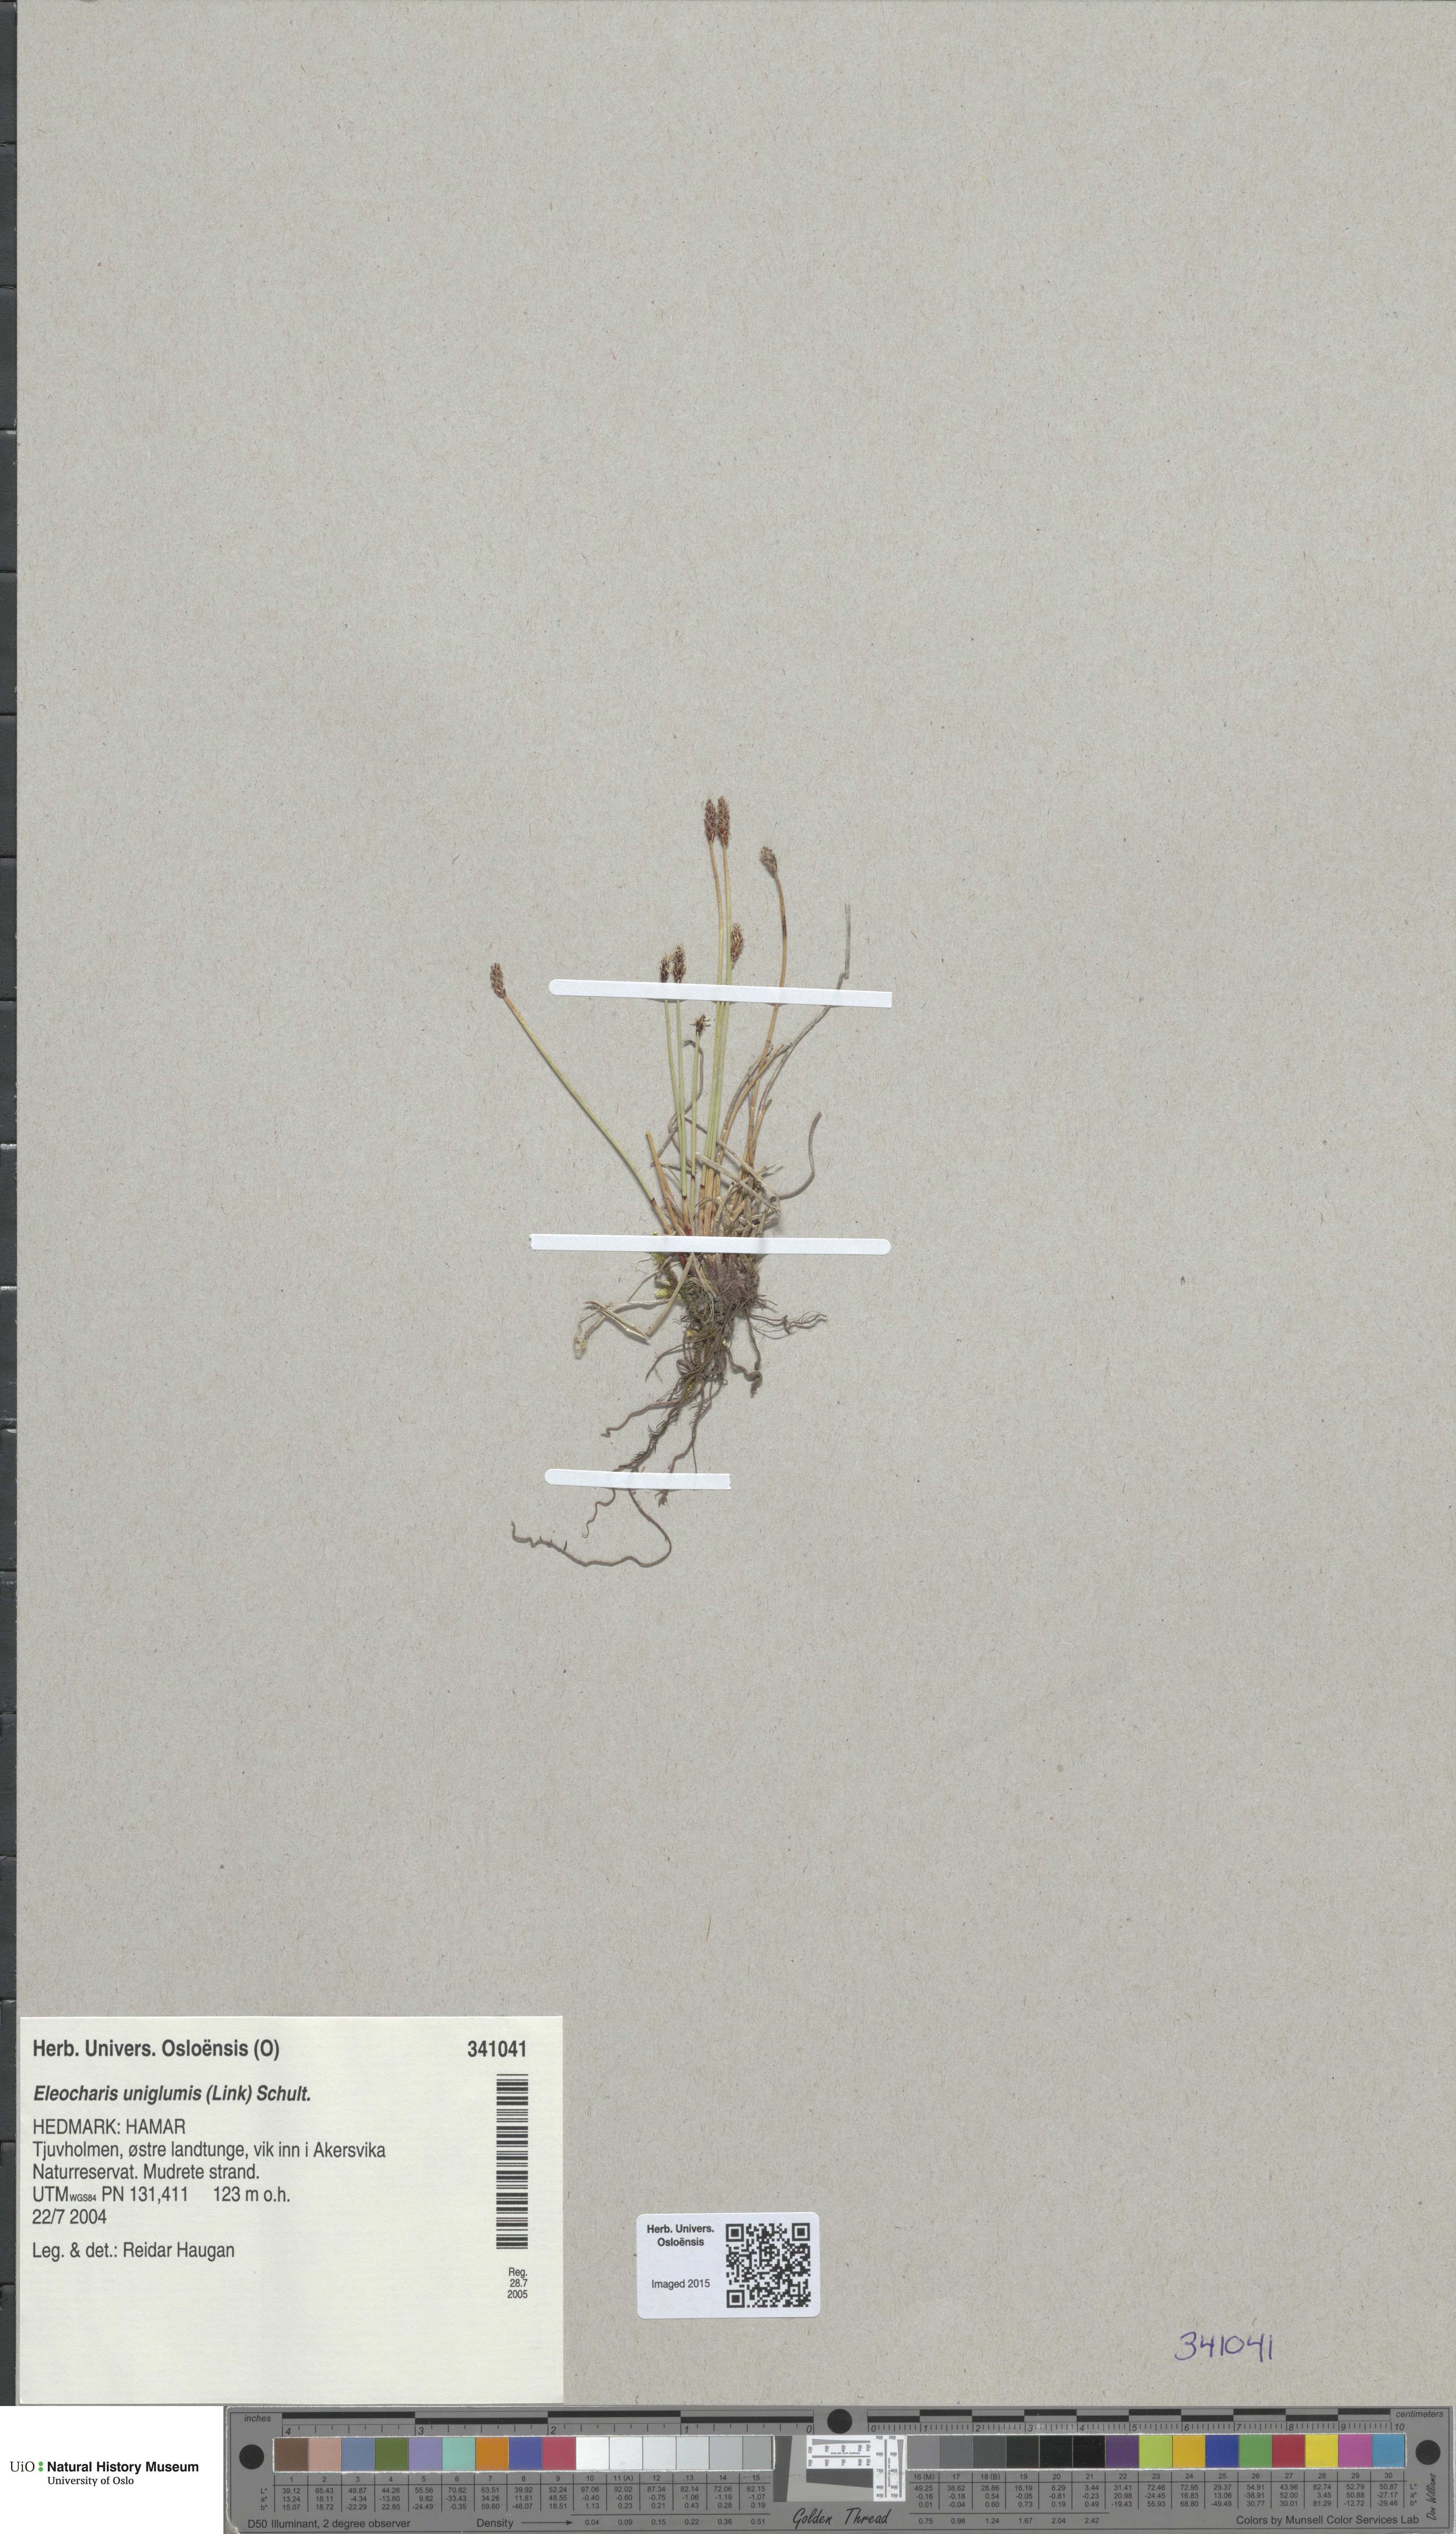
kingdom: Plantae
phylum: Tracheophyta
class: Liliopsida
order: Poales
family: Cyperaceae
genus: Eleocharis
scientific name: Eleocharis palustris
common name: Common spike-rush
